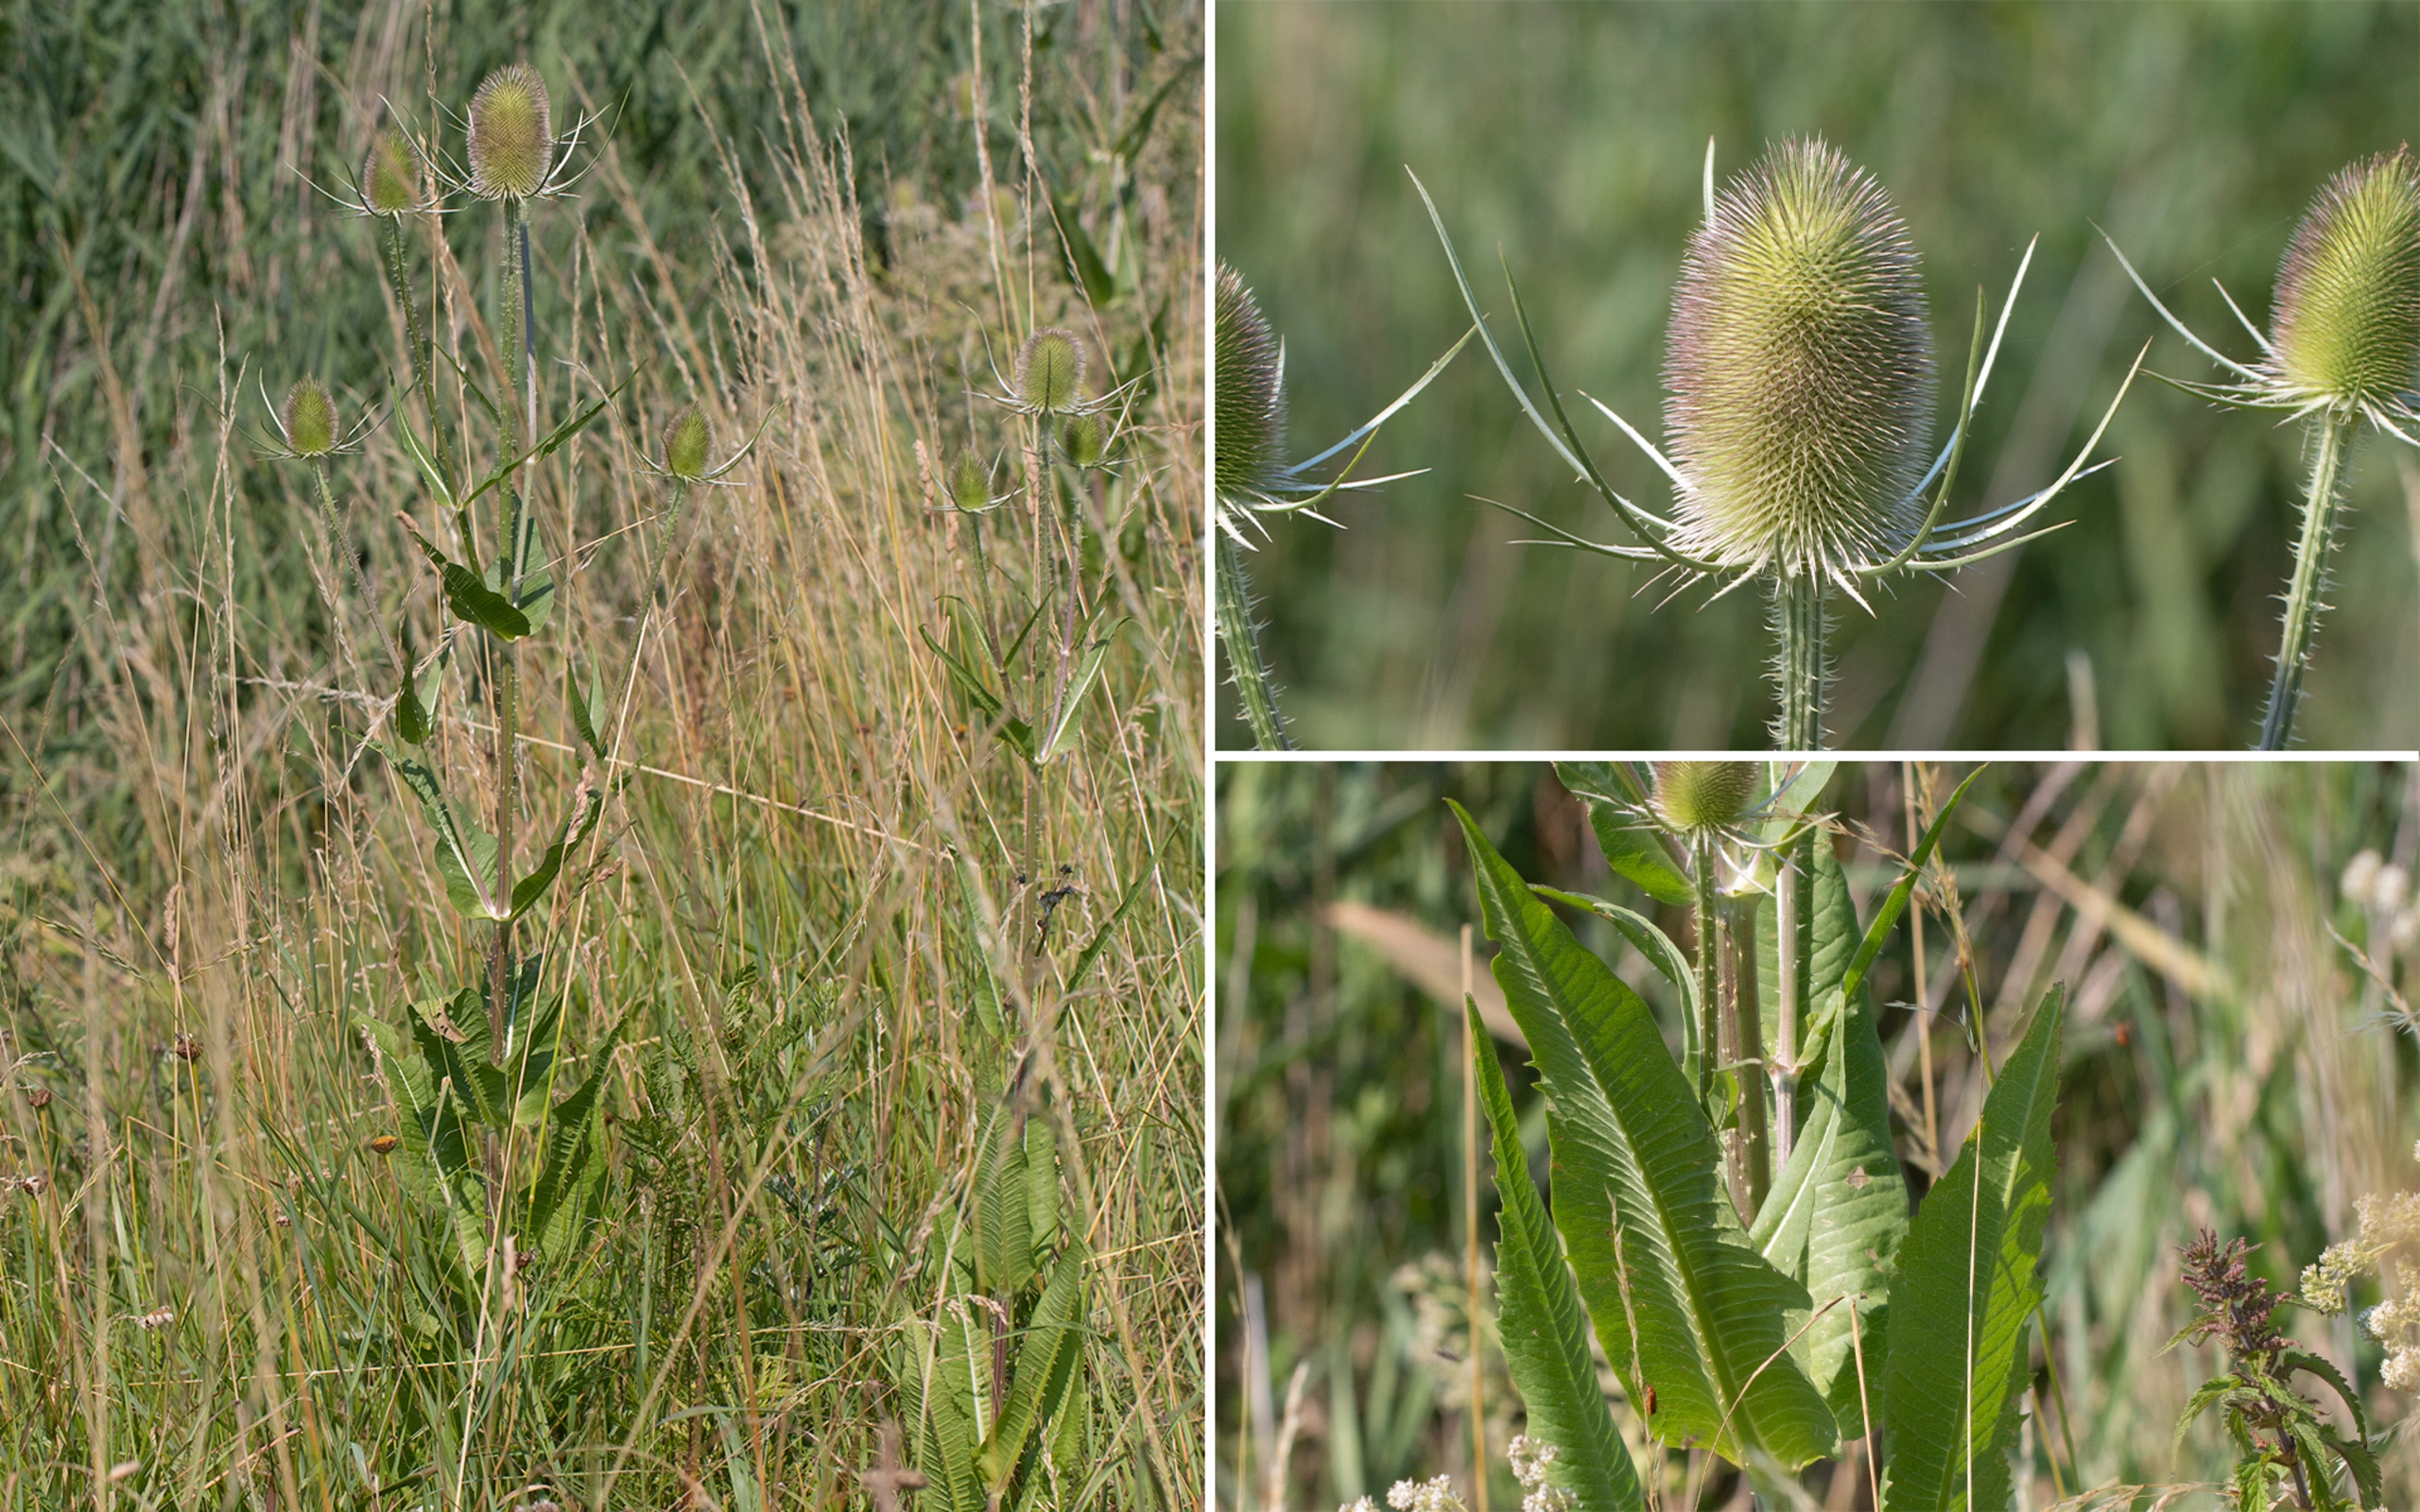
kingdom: Plantae
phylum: Tracheophyta
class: Magnoliopsida
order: Dipsacales
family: Caprifoliaceae
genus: Dipsacus
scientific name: Dipsacus fullonum
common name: Gærde-kartebolle
